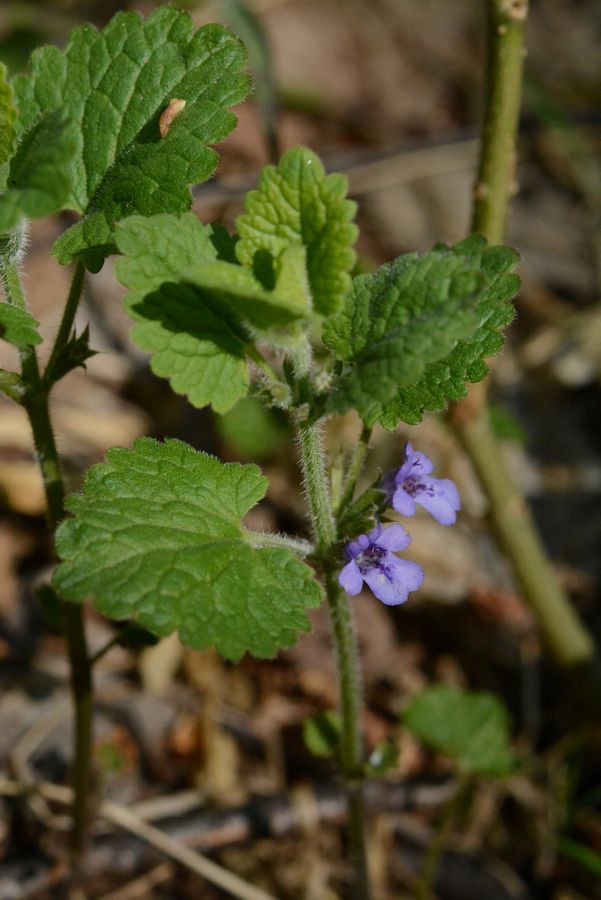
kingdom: Plantae
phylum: Tracheophyta
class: Magnoliopsida
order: Lamiales
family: Lamiaceae
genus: Glechoma
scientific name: Glechoma hederacea
